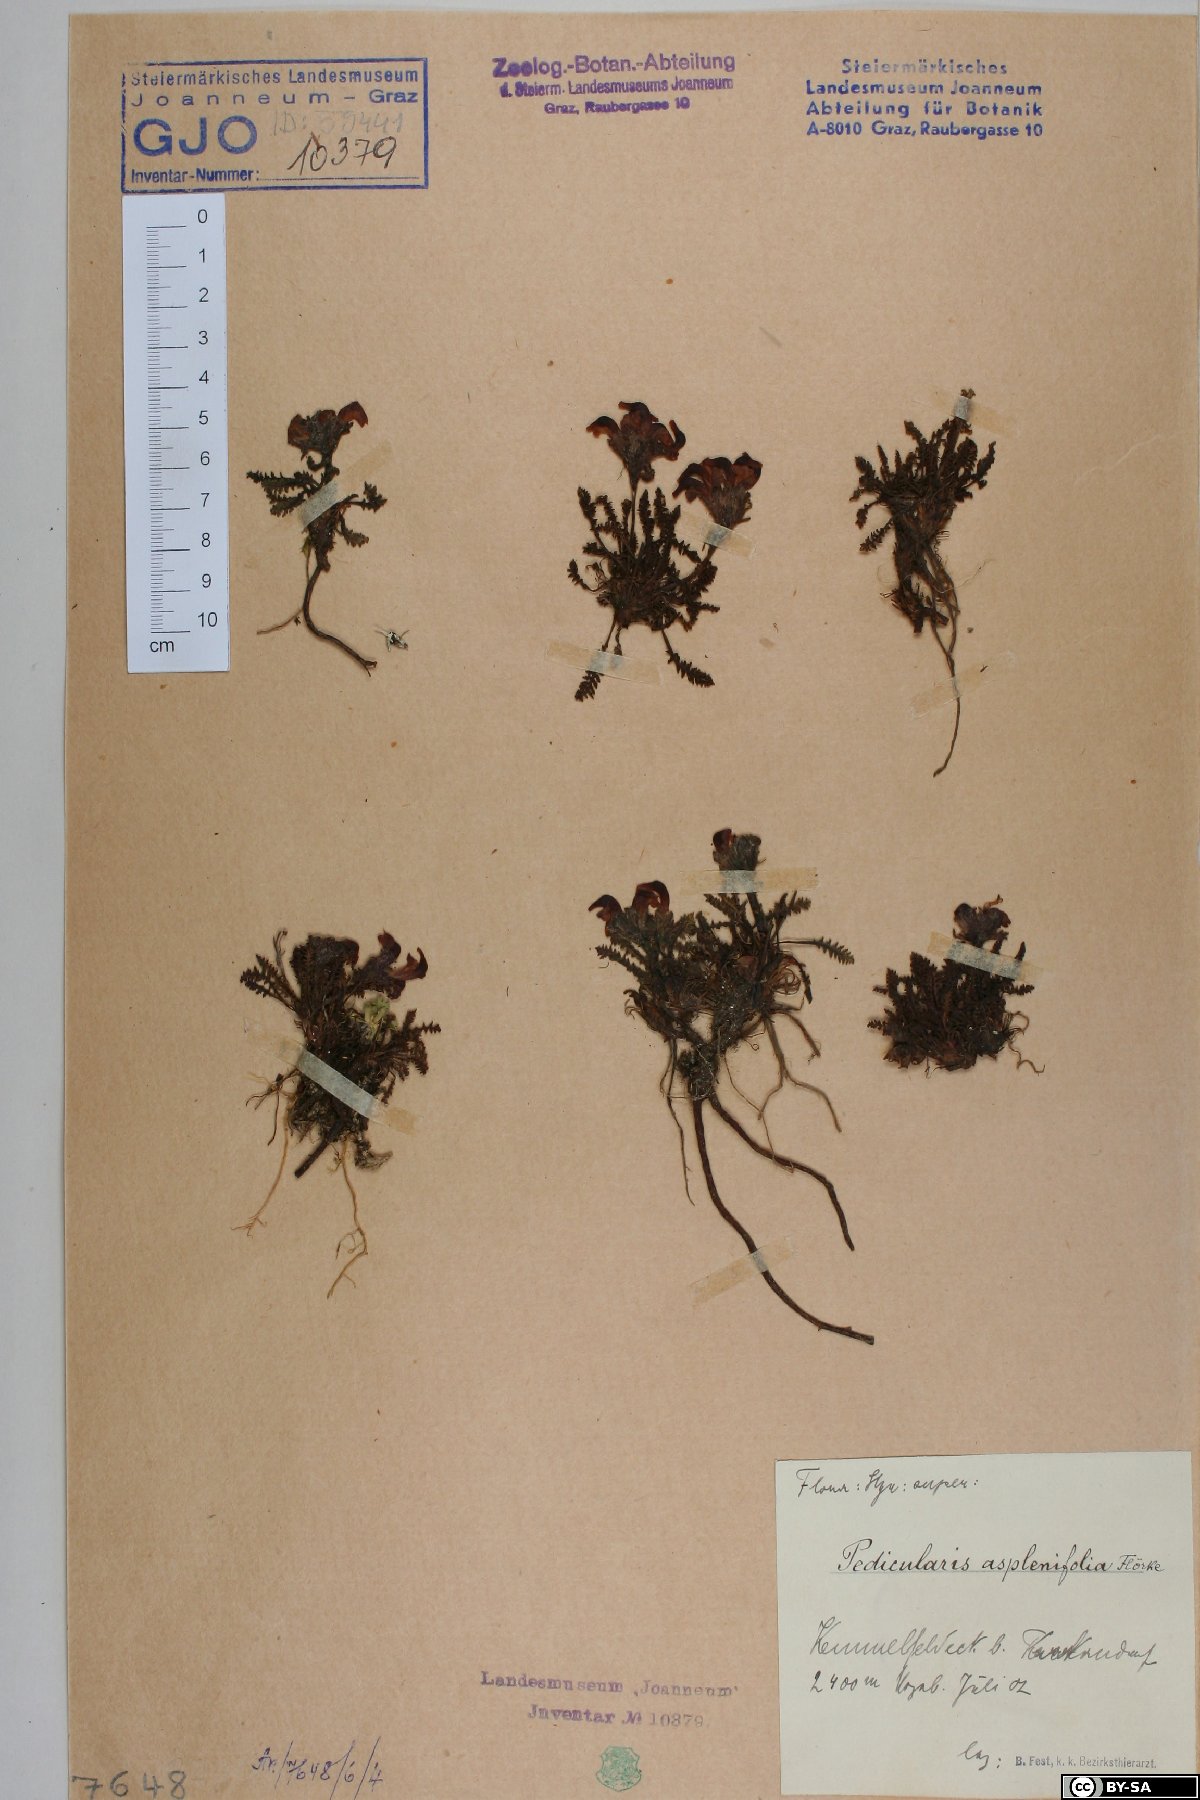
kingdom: Plantae
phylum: Tracheophyta
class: Magnoliopsida
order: Lamiales
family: Orobanchaceae
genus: Pedicularis
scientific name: Pedicularis asplenifolia
